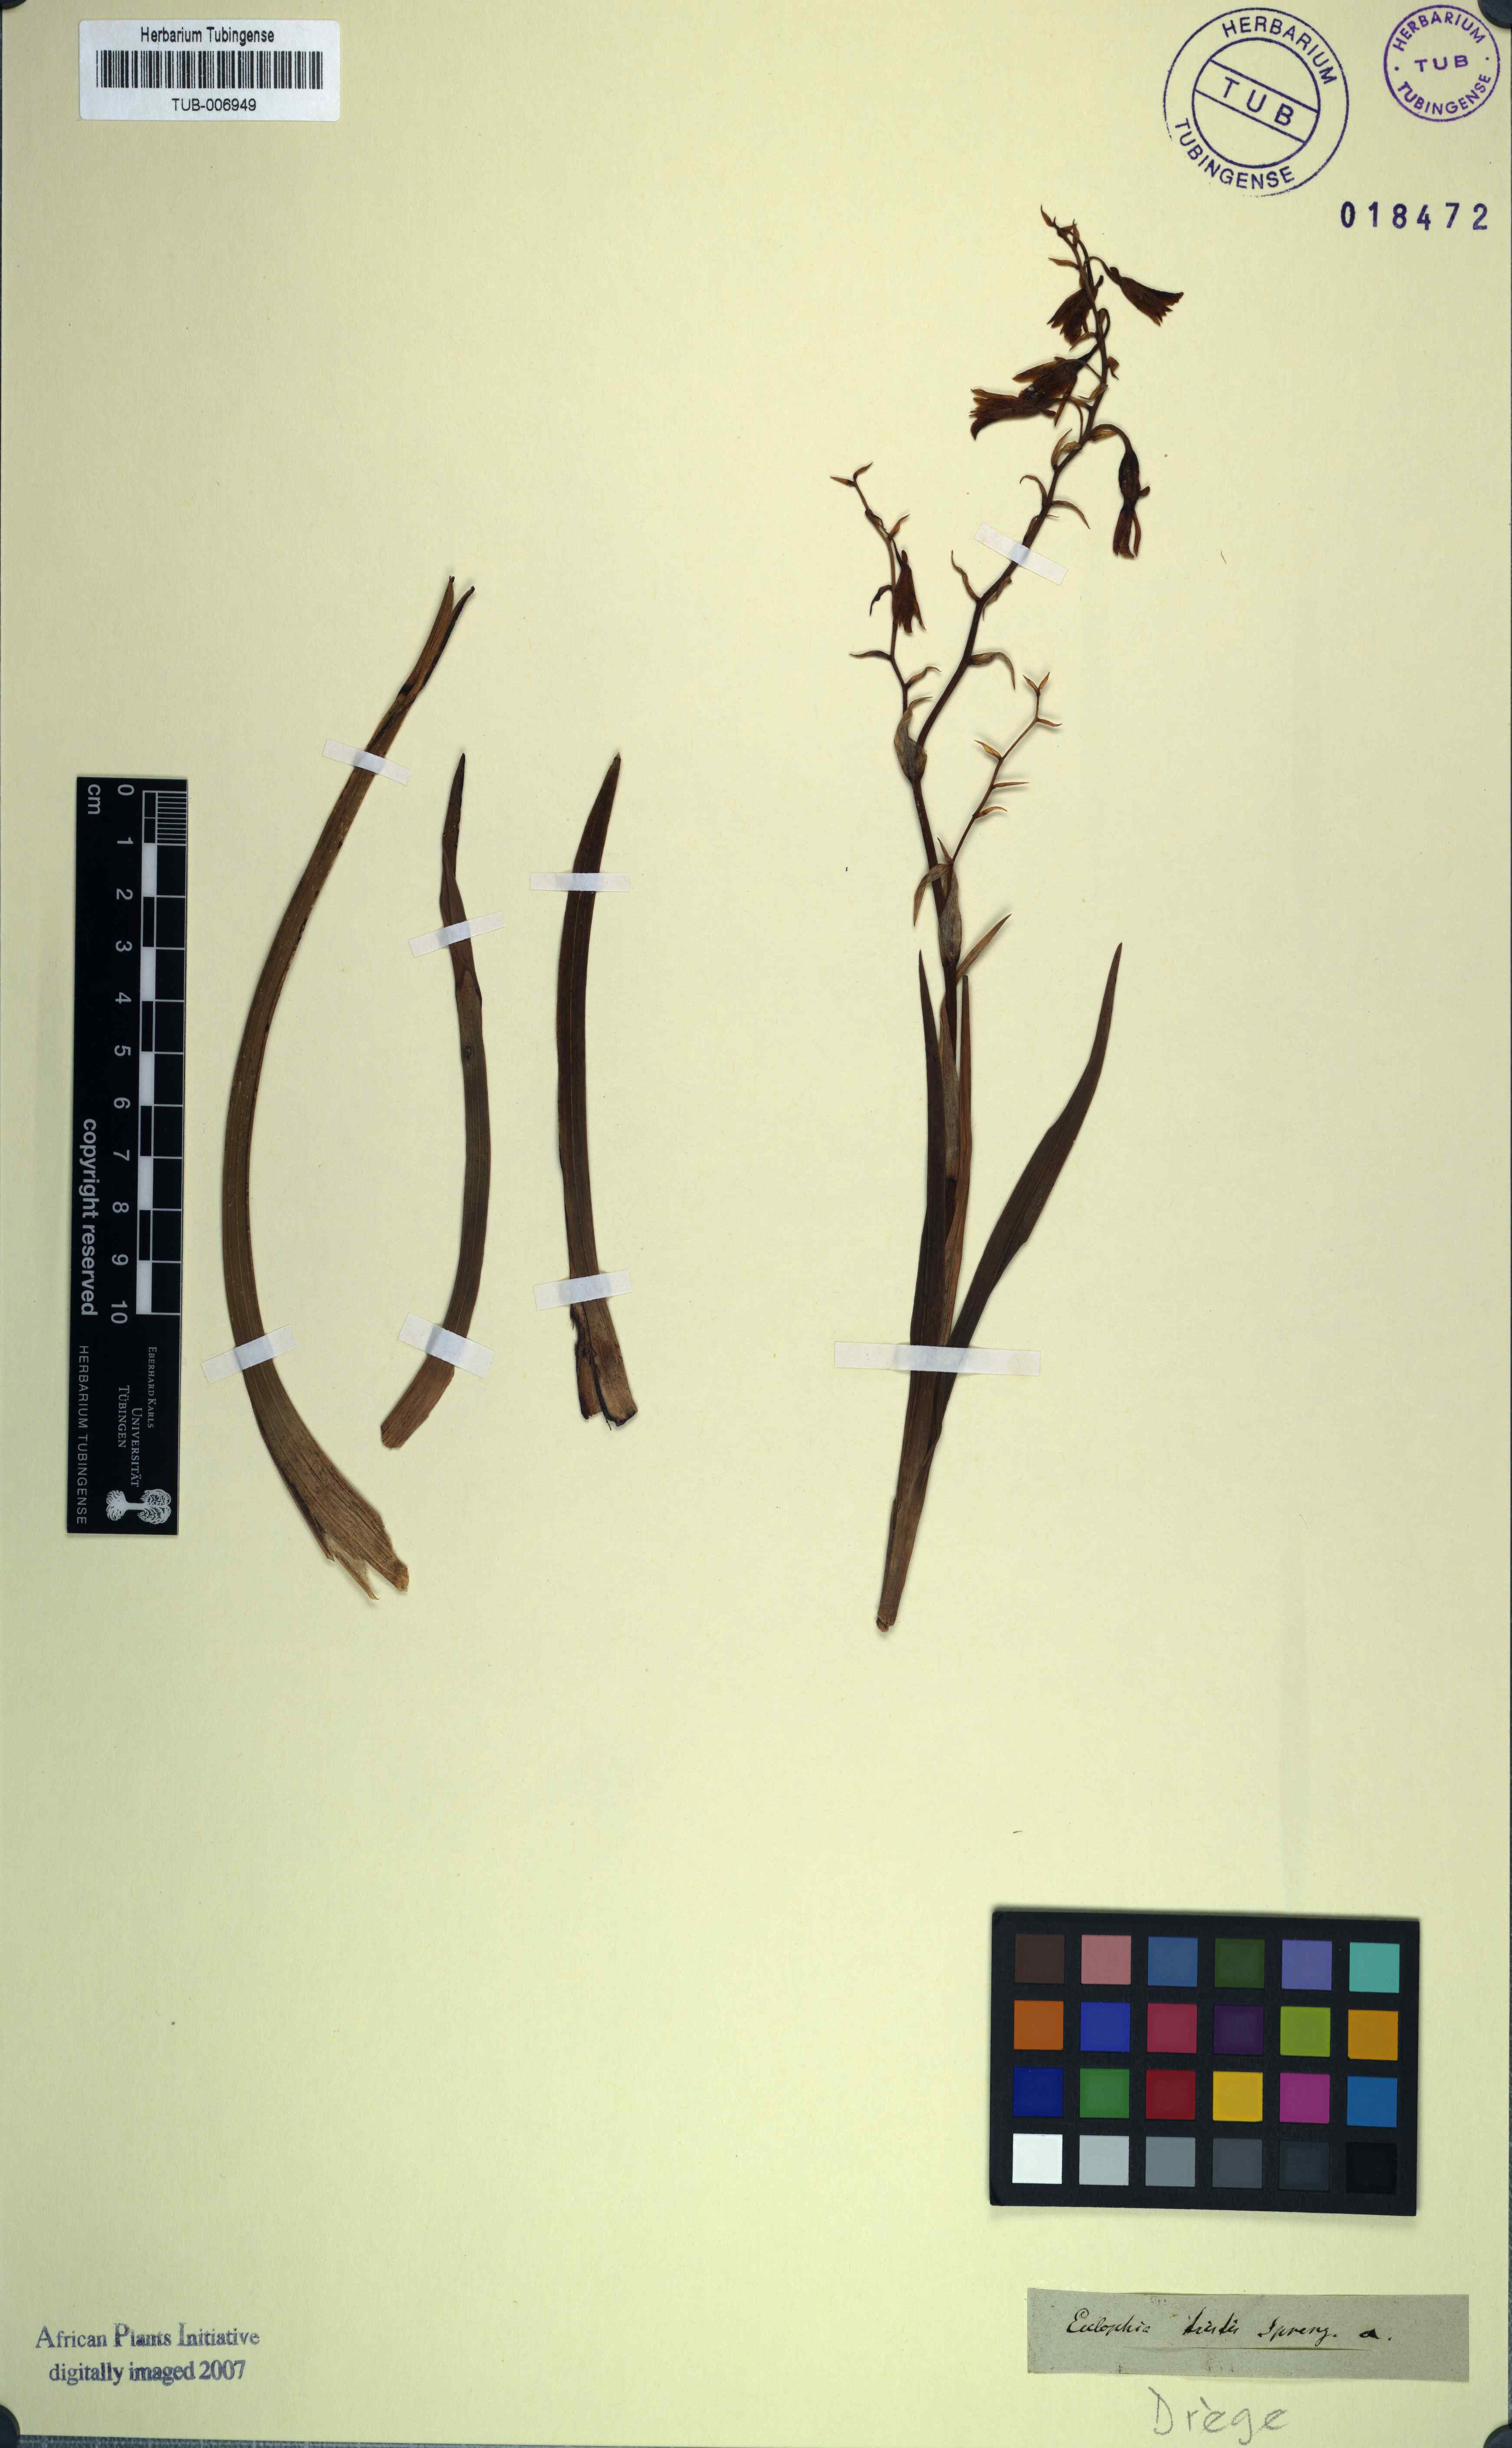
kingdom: Plantae
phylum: Tracheophyta
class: Liliopsida
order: Asparagales
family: Orchidaceae
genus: Eulophia
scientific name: Eulophia tristis
